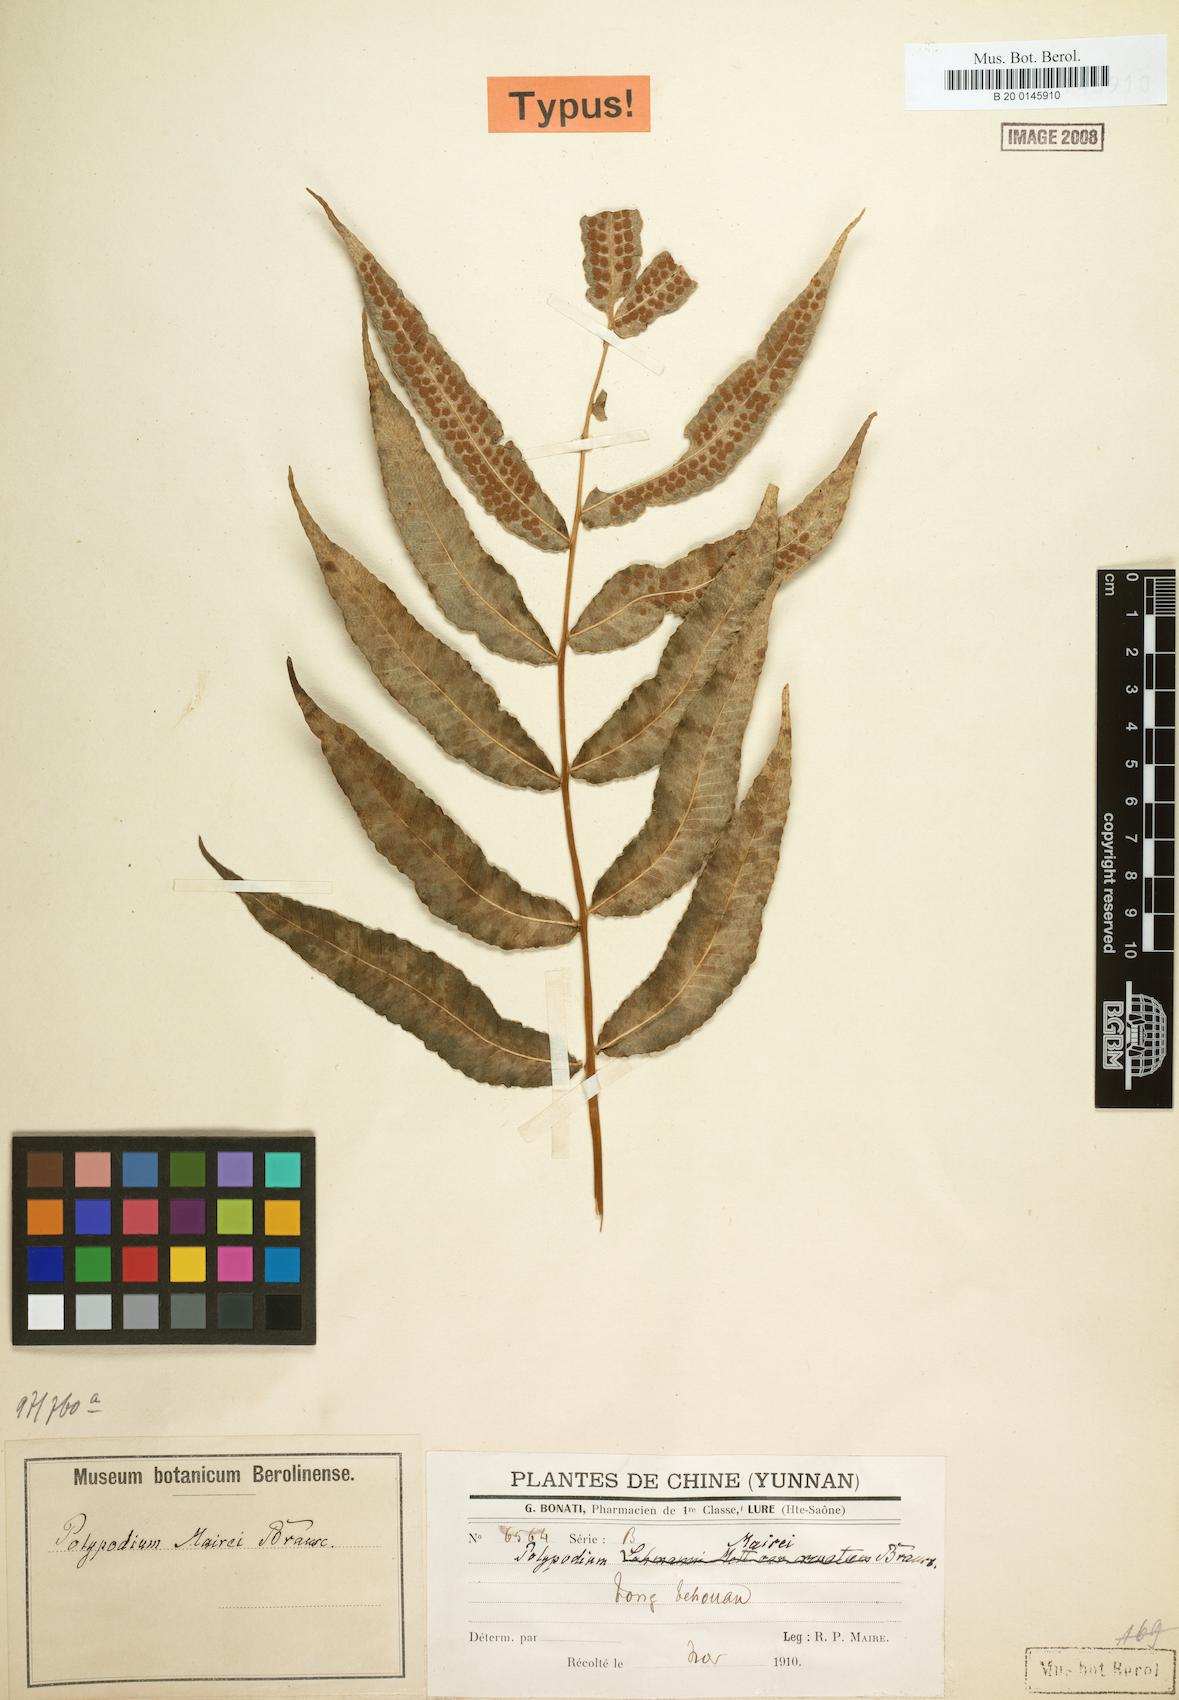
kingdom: Plantae
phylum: Tracheophyta
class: Polypodiopsida
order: Polypodiales
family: Polypodiaceae
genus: Selliguea
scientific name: Selliguea moulmeinensis
